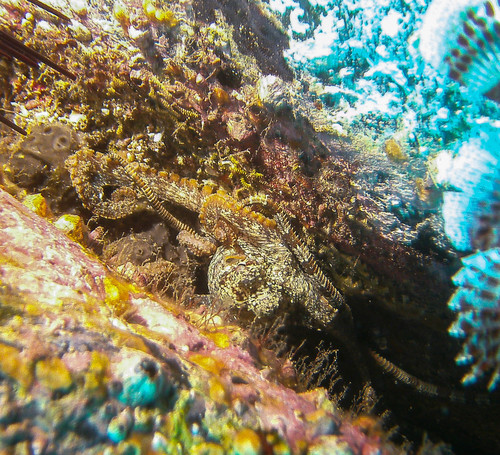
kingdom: Animalia
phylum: Echinodermata
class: Ophiuroidea
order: Ophiacanthida
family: Ophiodermatidae
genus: Ophioderma
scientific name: Ophioderma longicaudum
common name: Smooth brittle-star
